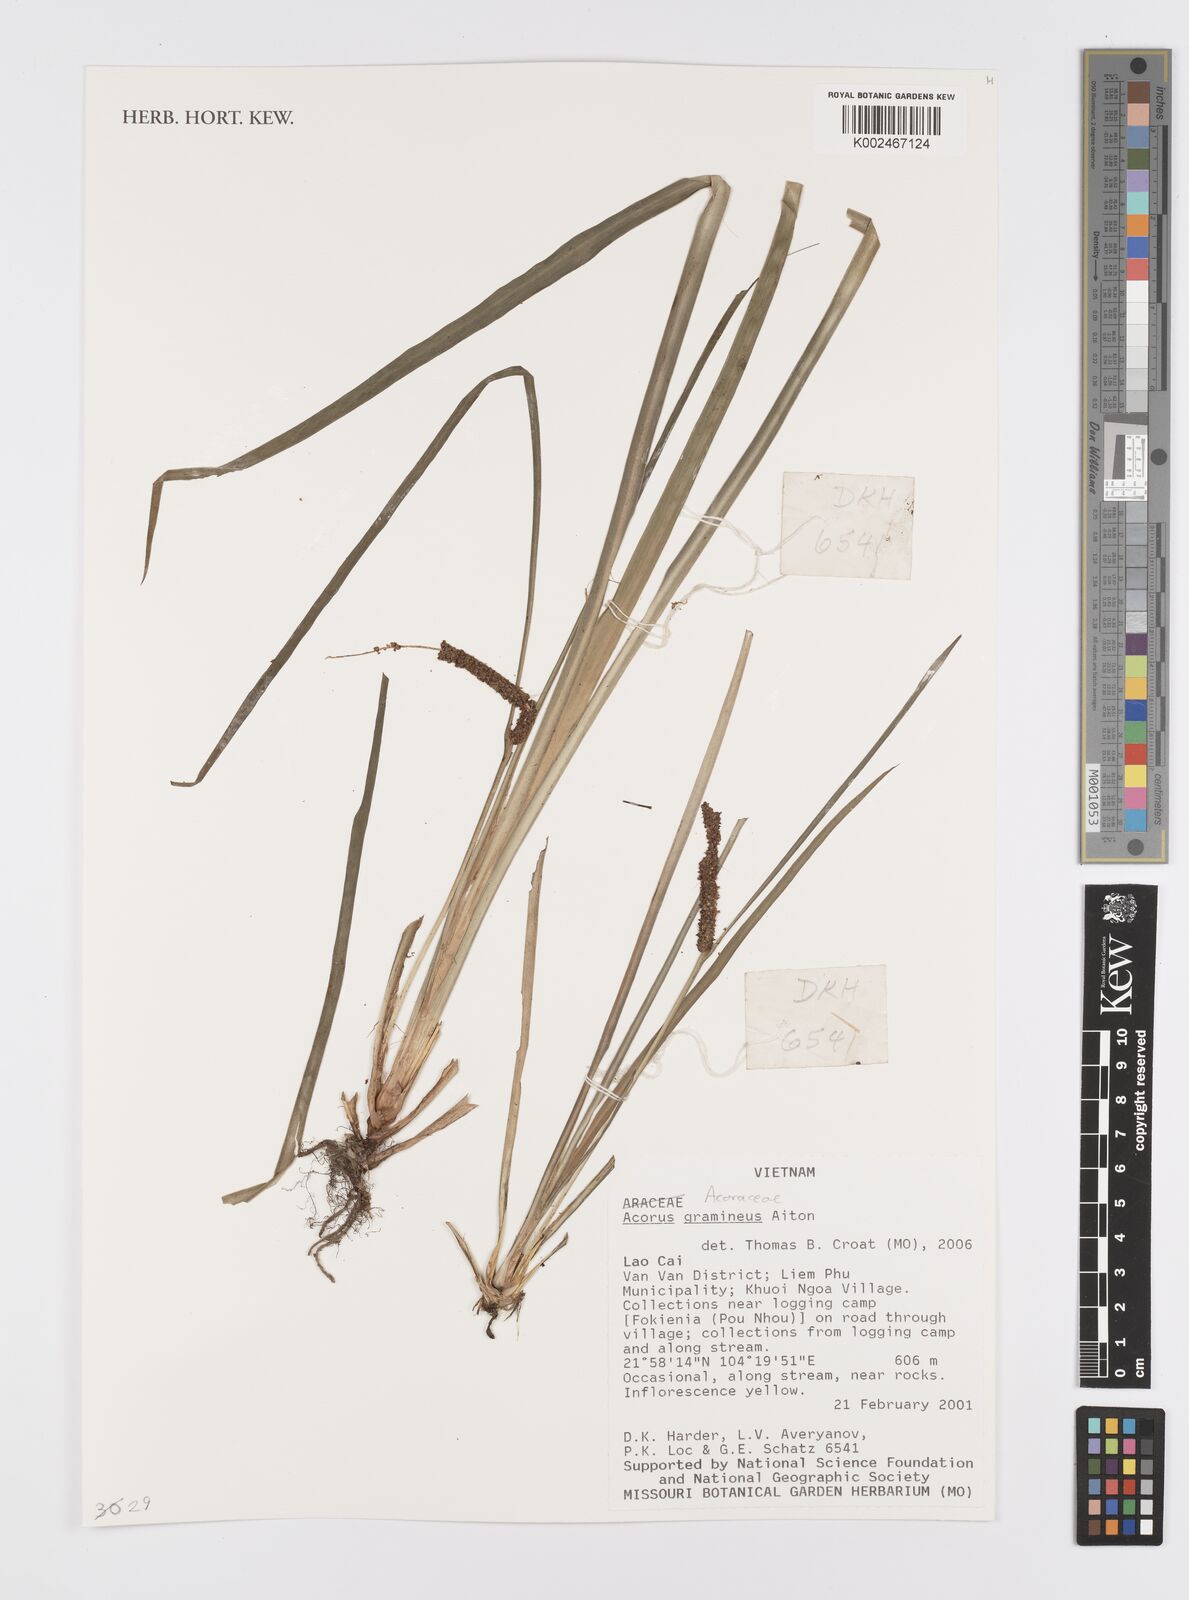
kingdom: Plantae
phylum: Tracheophyta
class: Liliopsida
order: Acorales
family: Acoraceae
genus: Acorus
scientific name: Acorus gramineus
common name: Slender sweet-flag
